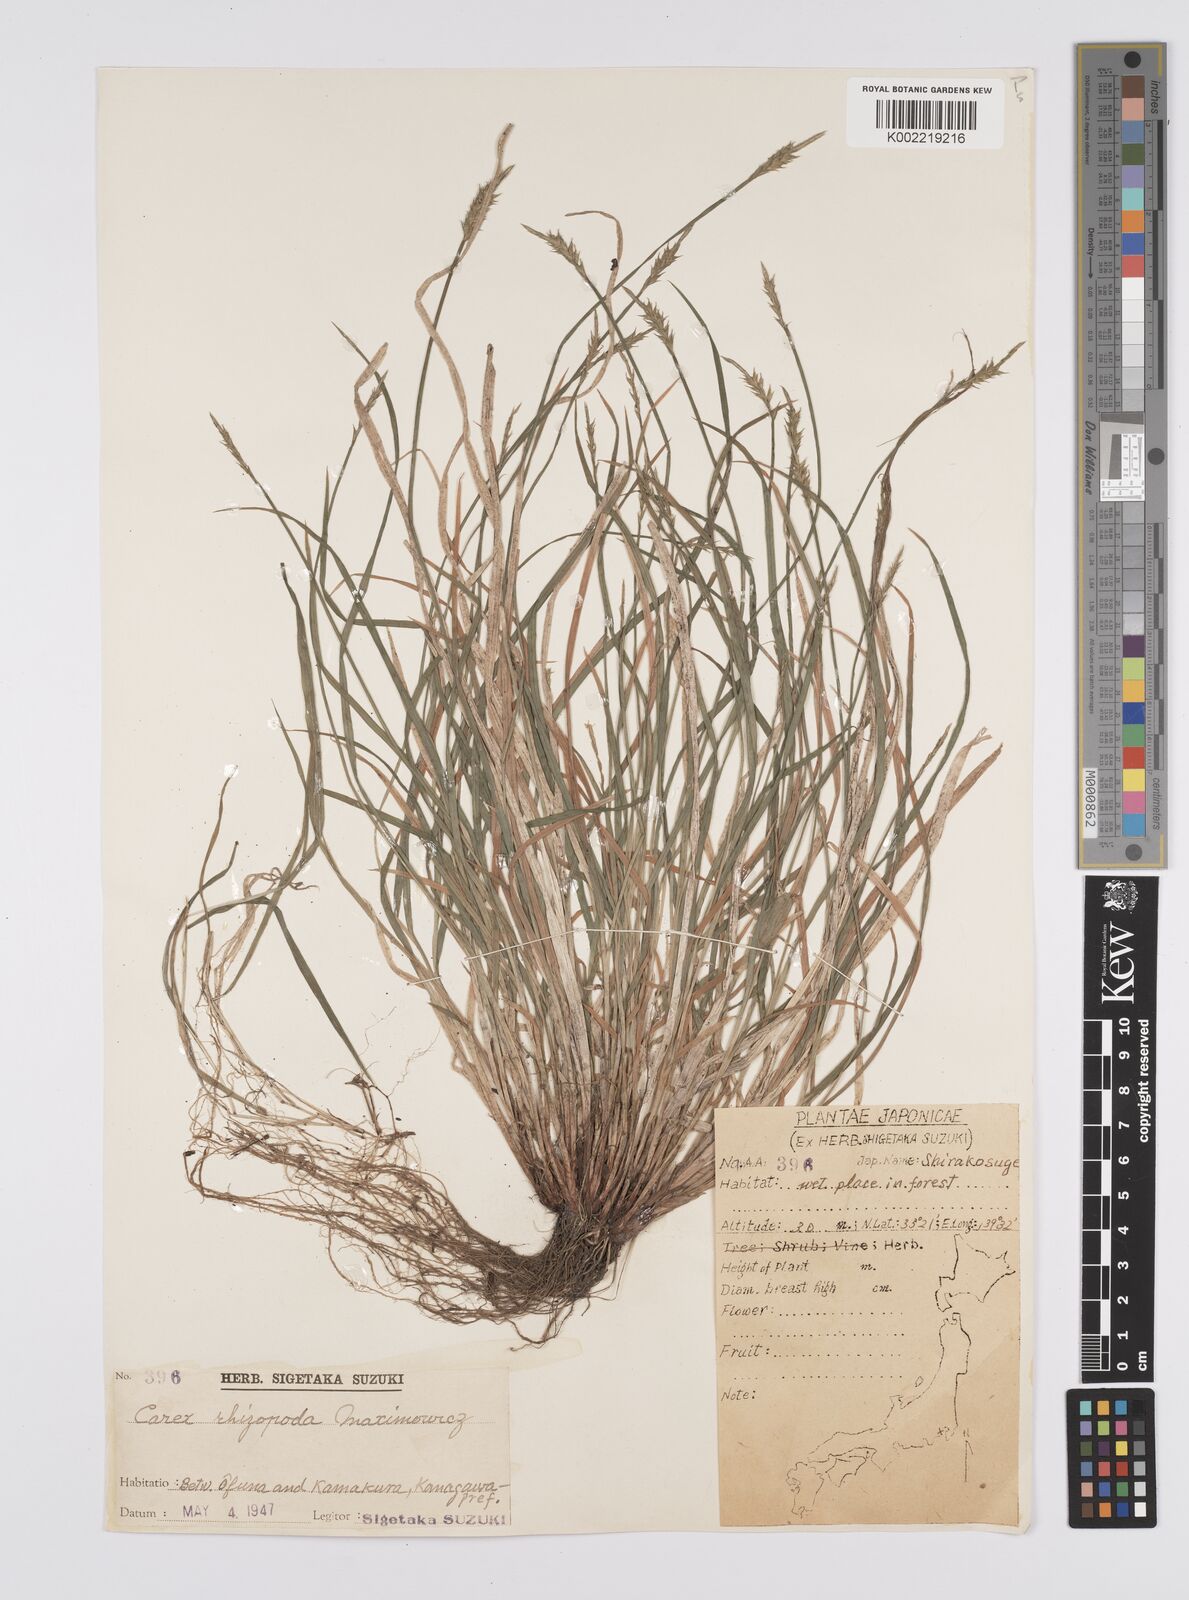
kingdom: Plantae
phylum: Tracheophyta
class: Liliopsida
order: Poales
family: Cyperaceae
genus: Carex
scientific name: Carex rhizopoda
